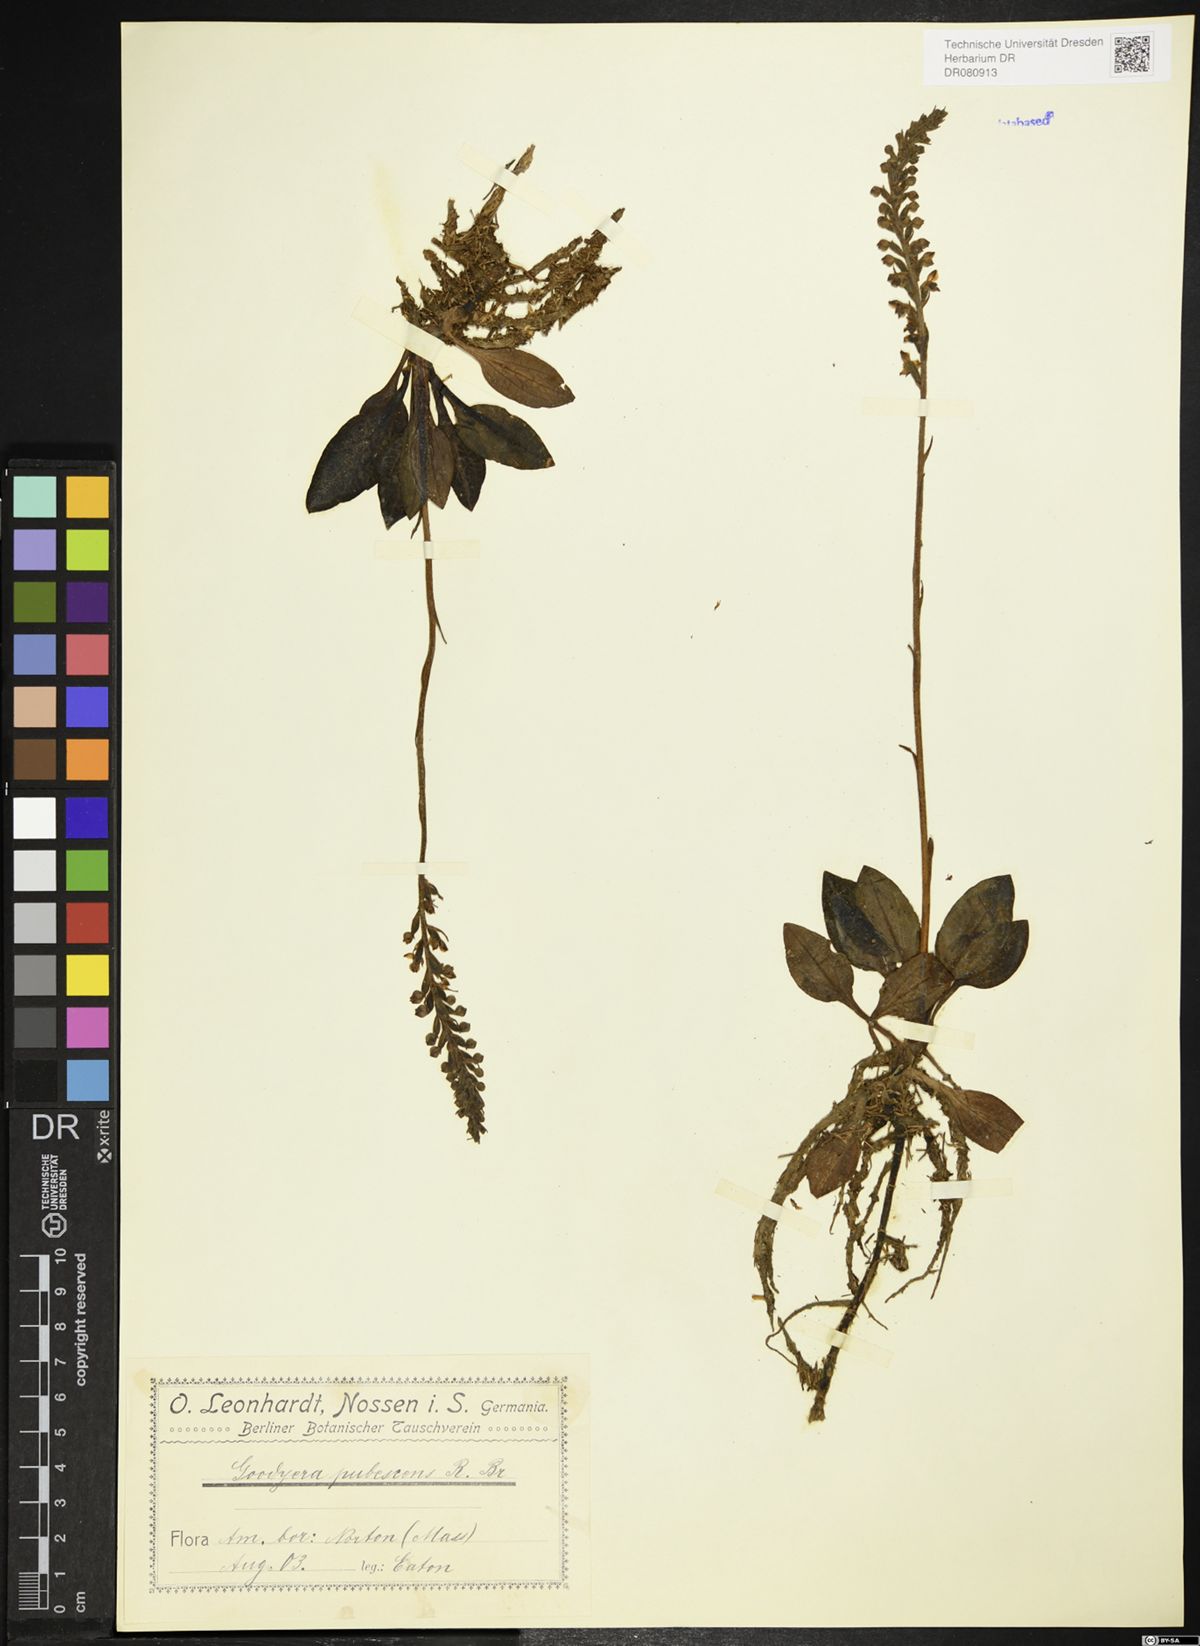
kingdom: Plantae
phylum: Tracheophyta
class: Liliopsida
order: Asparagales
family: Orchidaceae
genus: Goodyera
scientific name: Goodyera pubescens
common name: Downy rattlesnake-plantain
